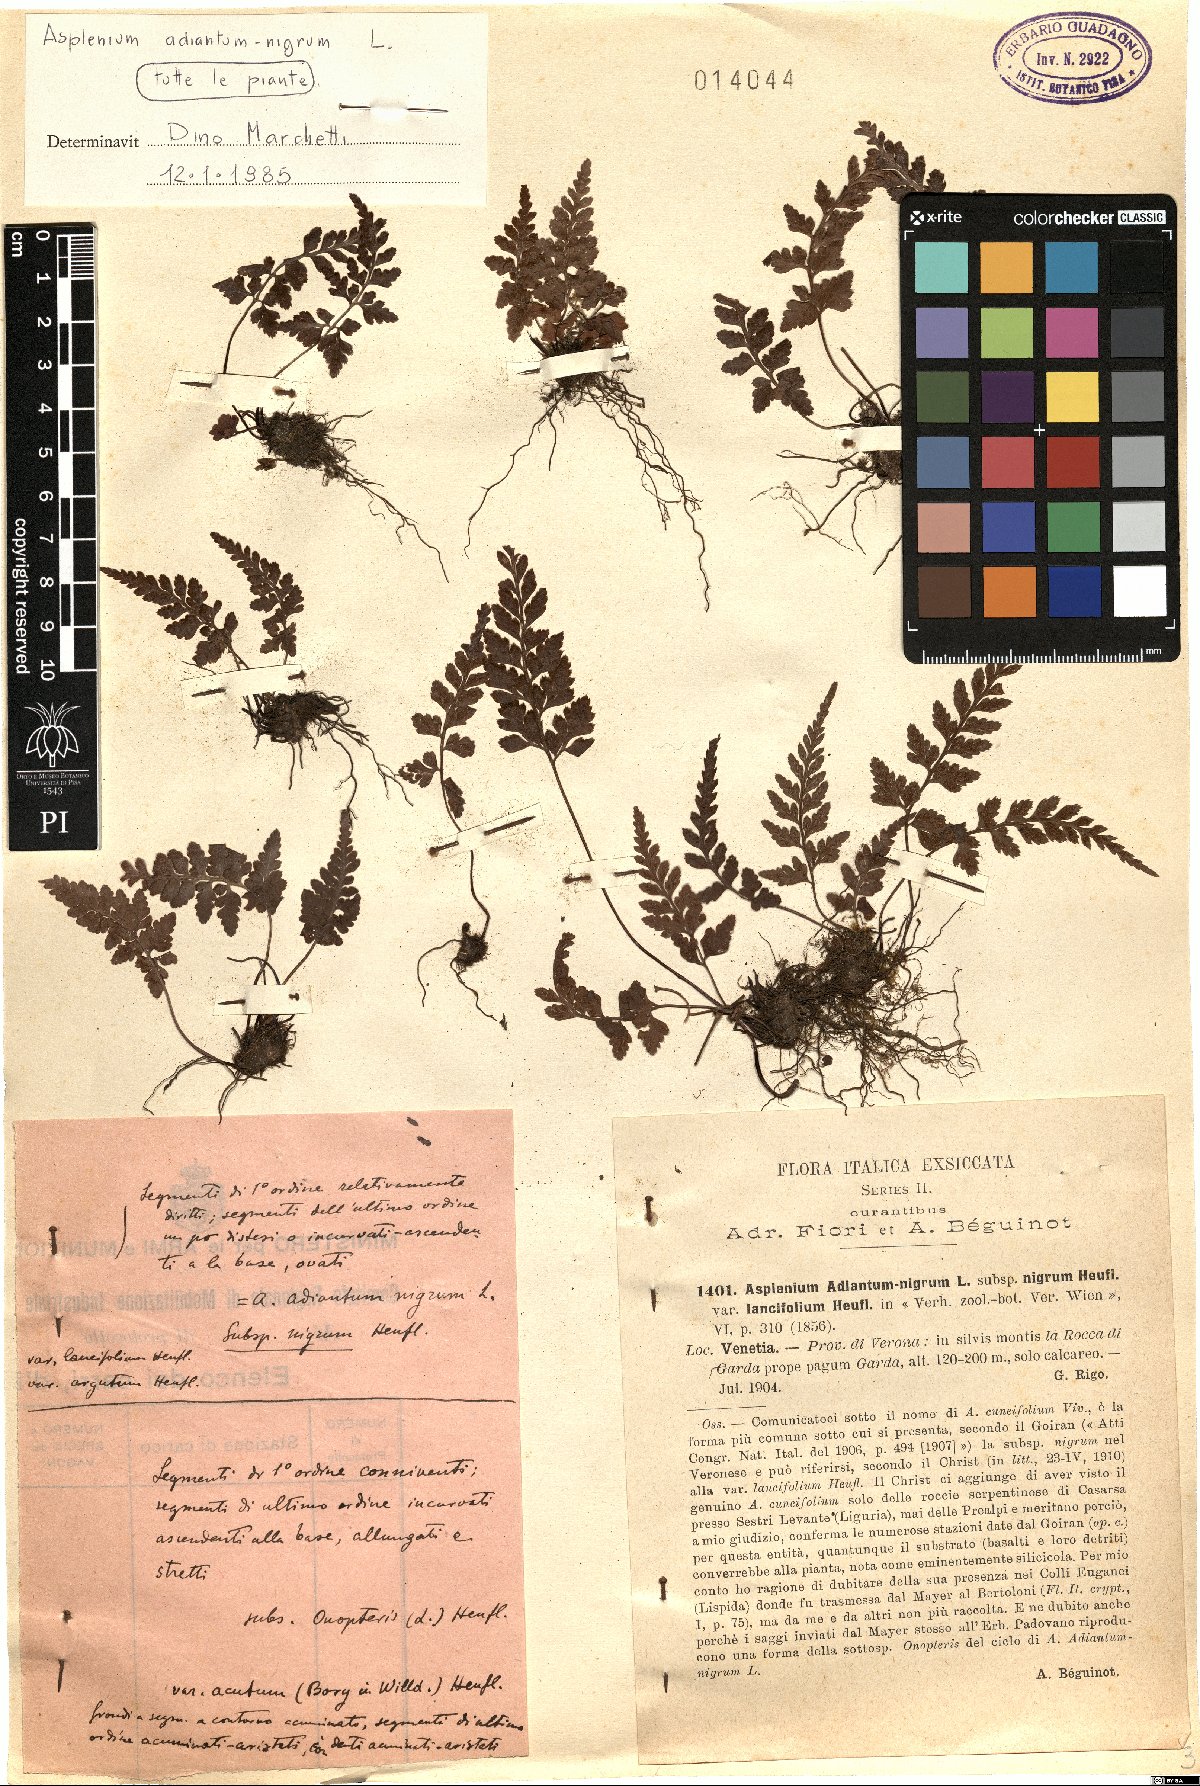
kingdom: Plantae
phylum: Tracheophyta
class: Polypodiopsida
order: Polypodiales
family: Aspleniaceae
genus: Asplenium
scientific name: Asplenium adiantum-nigrum
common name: Black spleenwort
